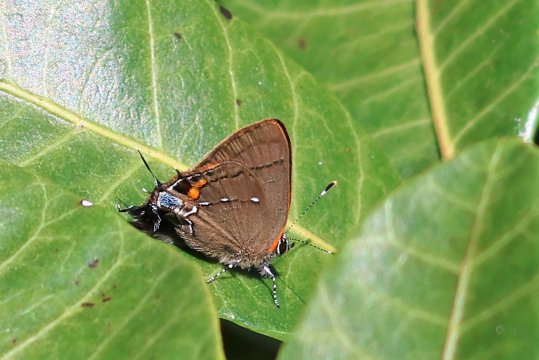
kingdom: Animalia
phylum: Arthropoda
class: Insecta
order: Lepidoptera
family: Lycaenidae
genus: Thecla
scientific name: Thecla angelia
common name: Fulvous Hairstreak
